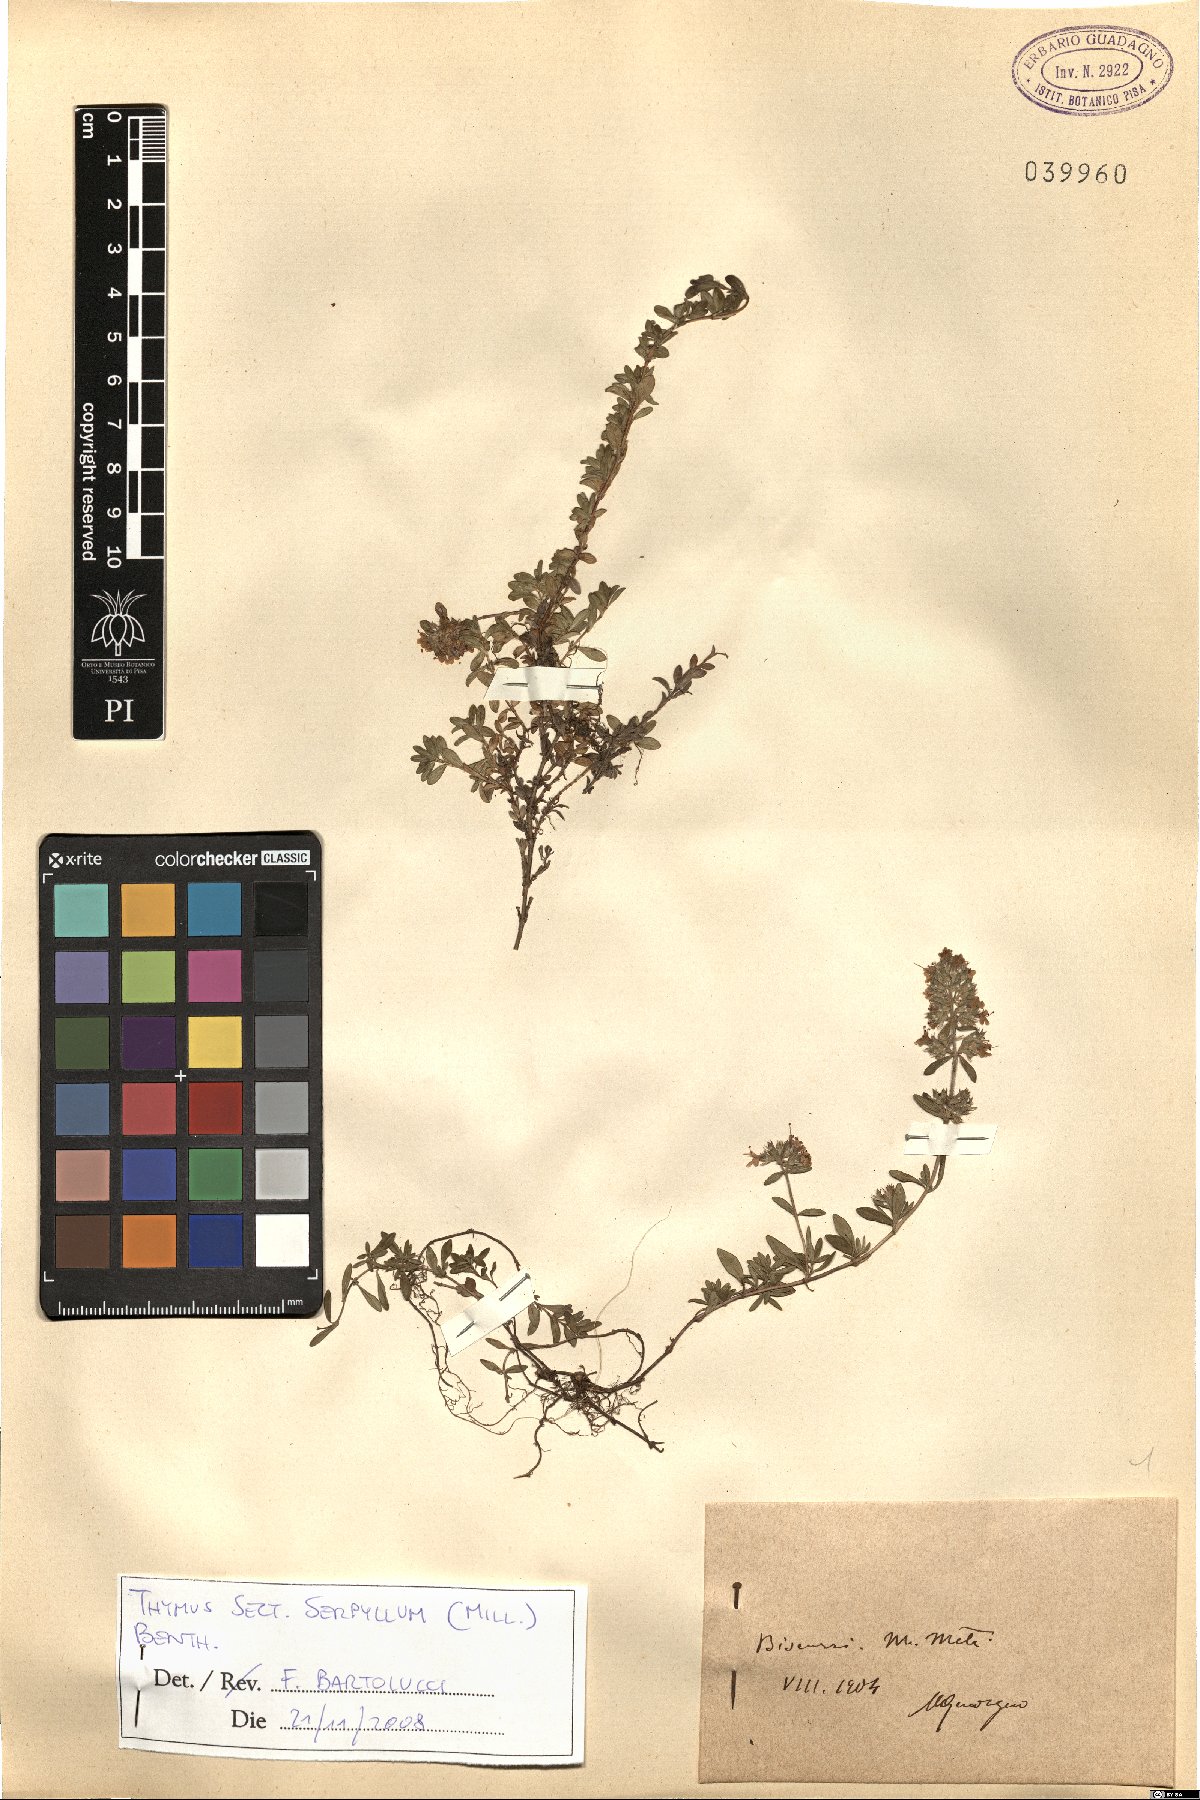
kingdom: Plantae
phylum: Tracheophyta
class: Magnoliopsida
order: Lamiales
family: Lamiaceae
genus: Thymus
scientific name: Thymus serpyllum
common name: Breckland thyme
